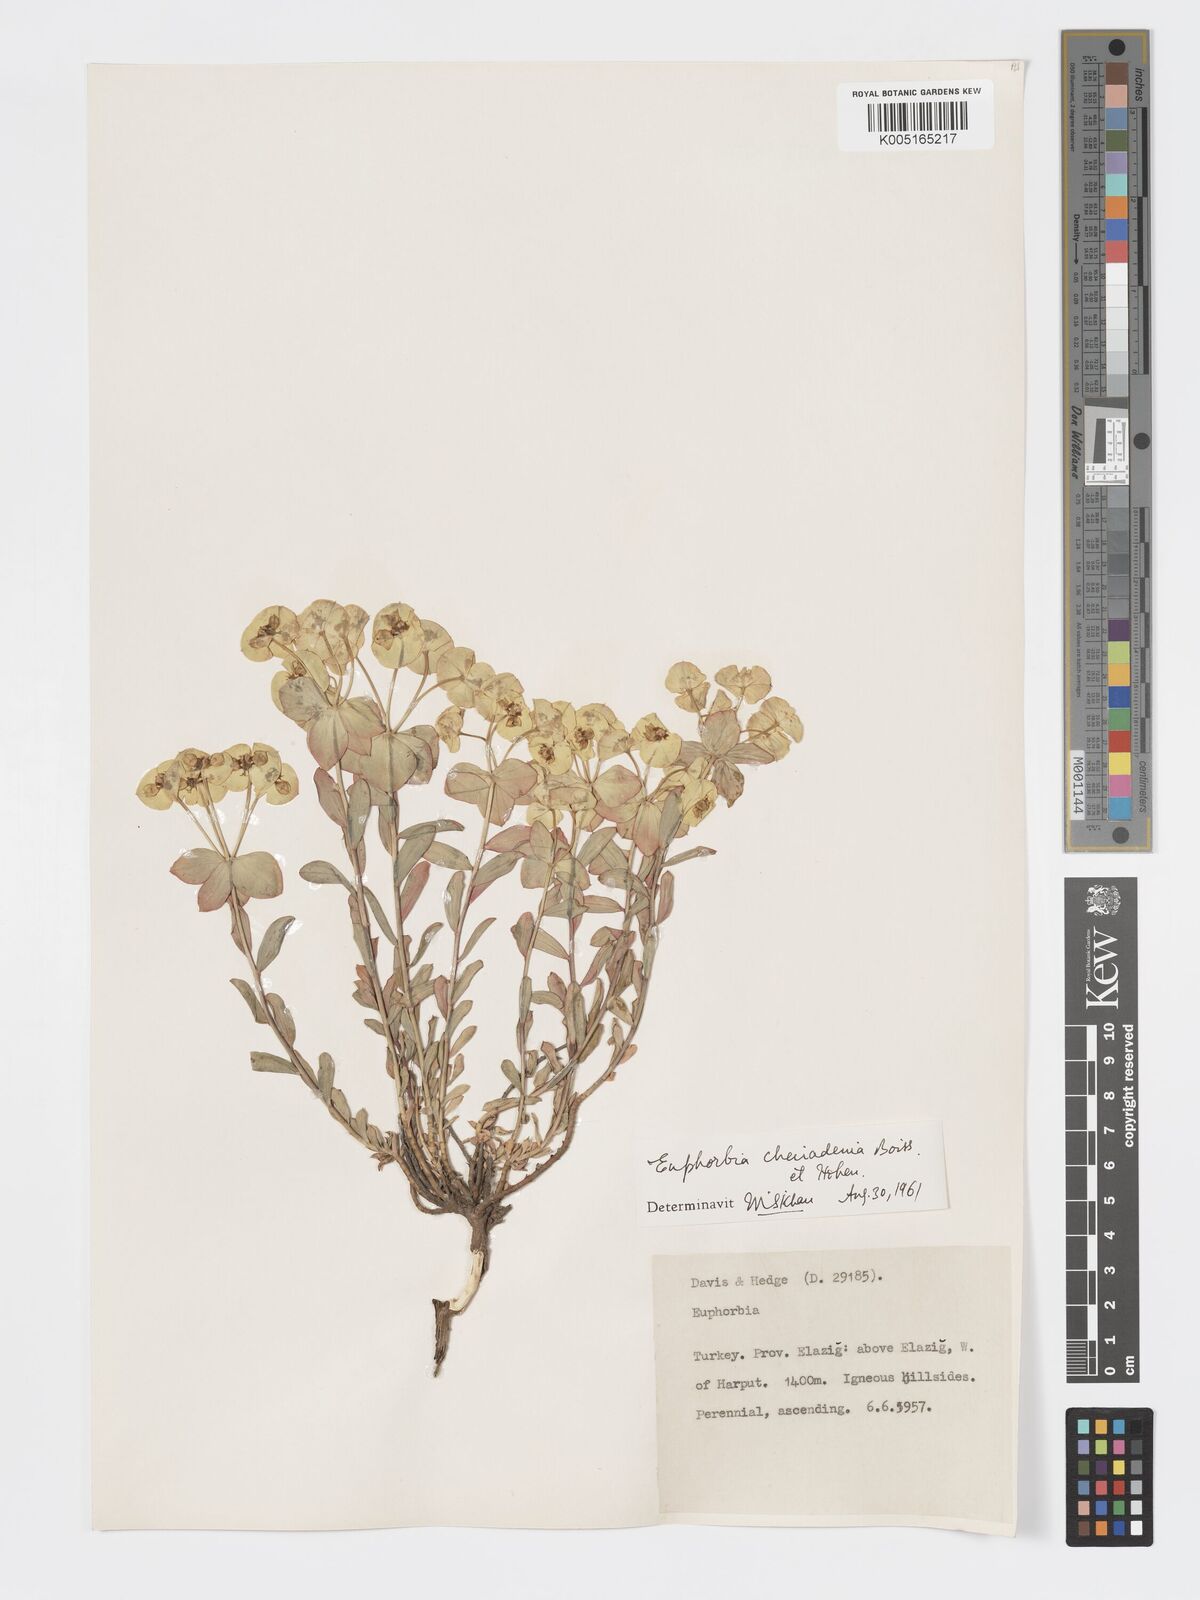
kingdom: Plantae
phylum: Tracheophyta
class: Magnoliopsida
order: Malpighiales
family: Euphorbiaceae
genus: Euphorbia
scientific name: Euphorbia cheiradenia
